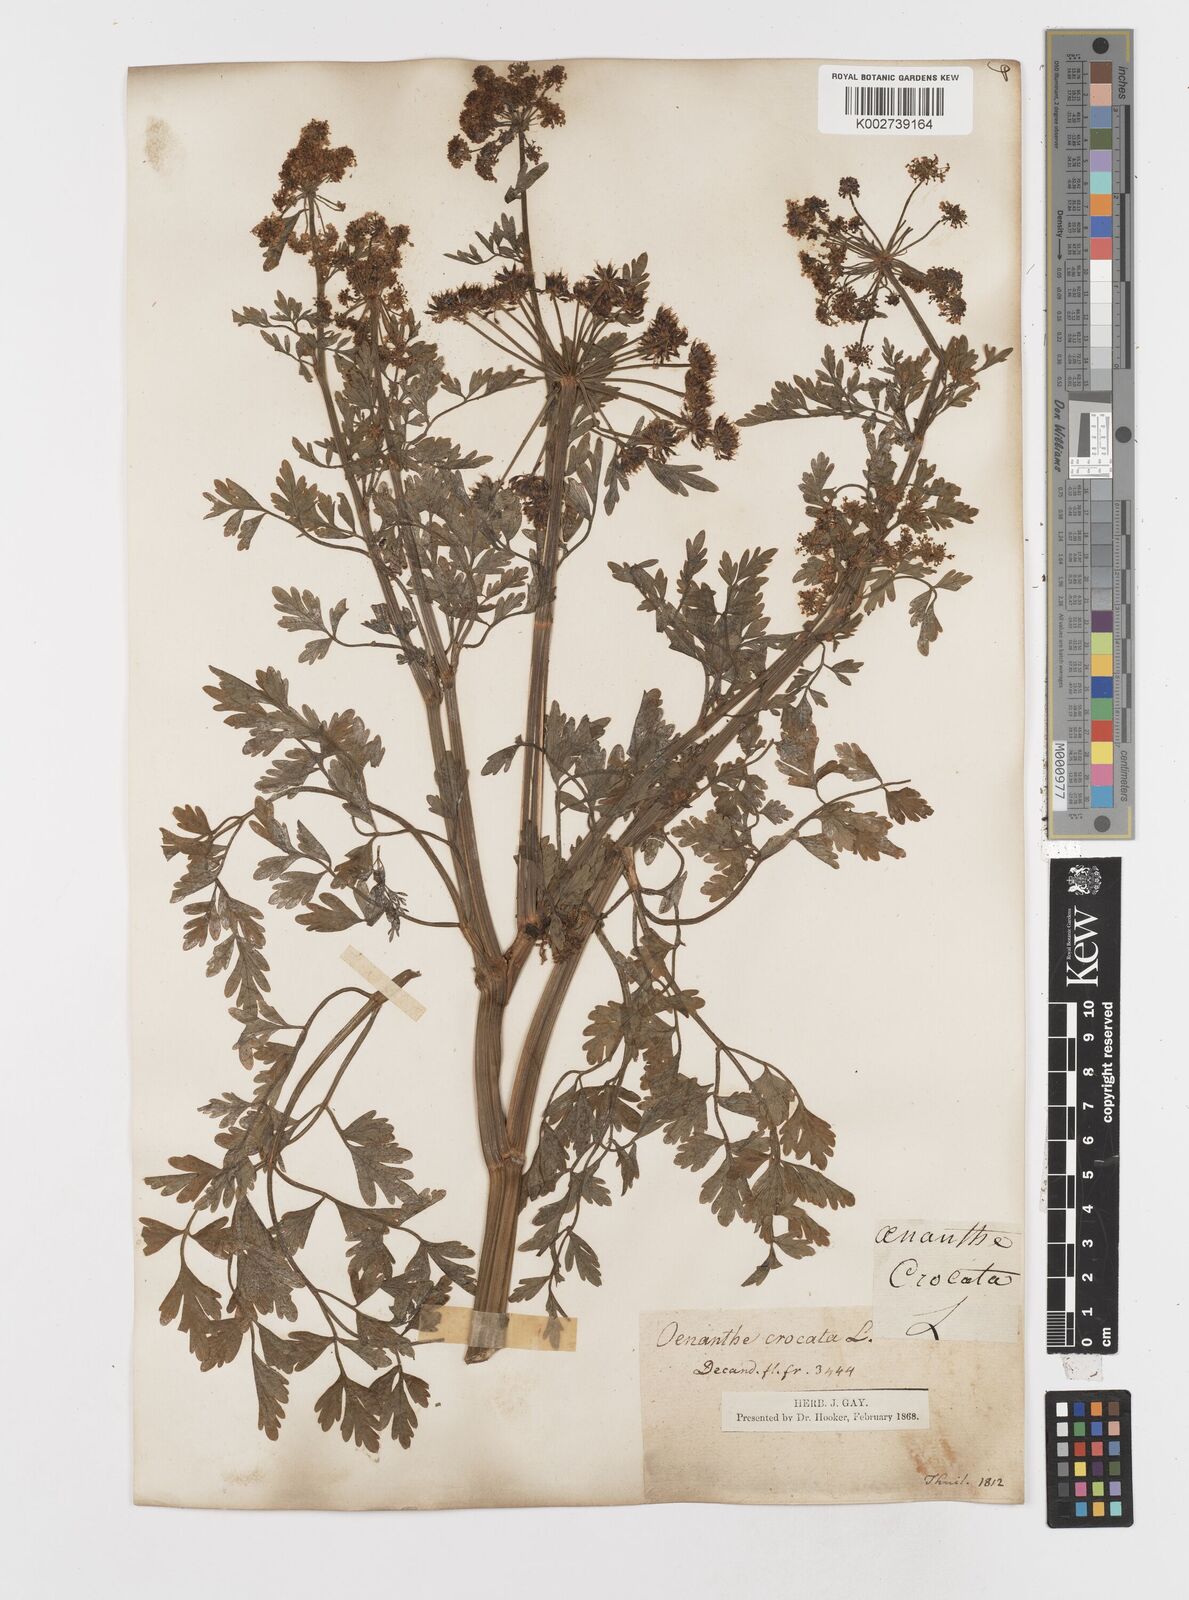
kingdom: Plantae
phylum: Tracheophyta
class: Magnoliopsida
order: Apiales
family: Apiaceae
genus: Oenanthe
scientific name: Oenanthe crocata
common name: Hemlock water-dropwort
